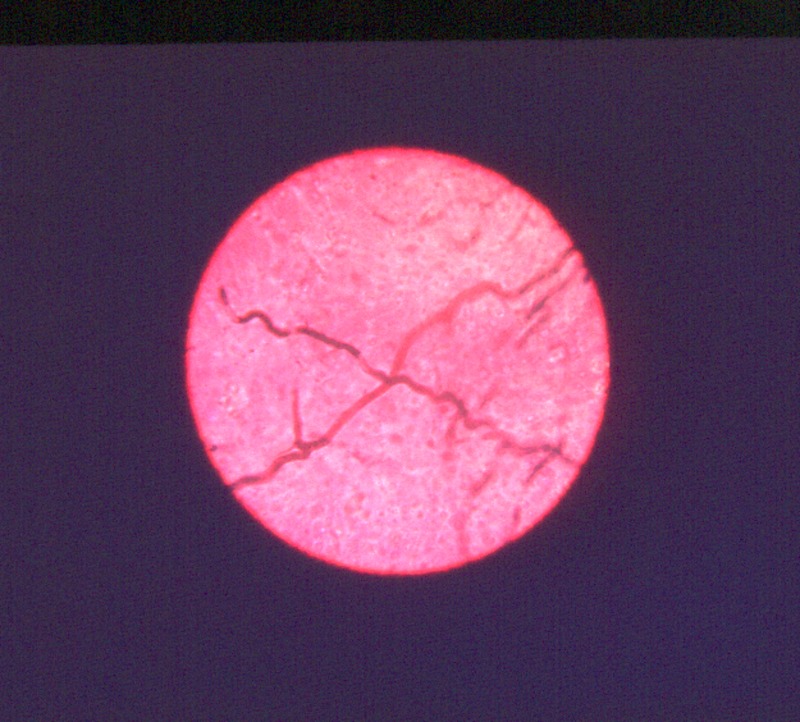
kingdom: Fungi
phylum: Basidiomycota
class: Agaricomycetes
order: Russulales
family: Russulaceae
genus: Lactarius
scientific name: Lactarius salmonicolor
